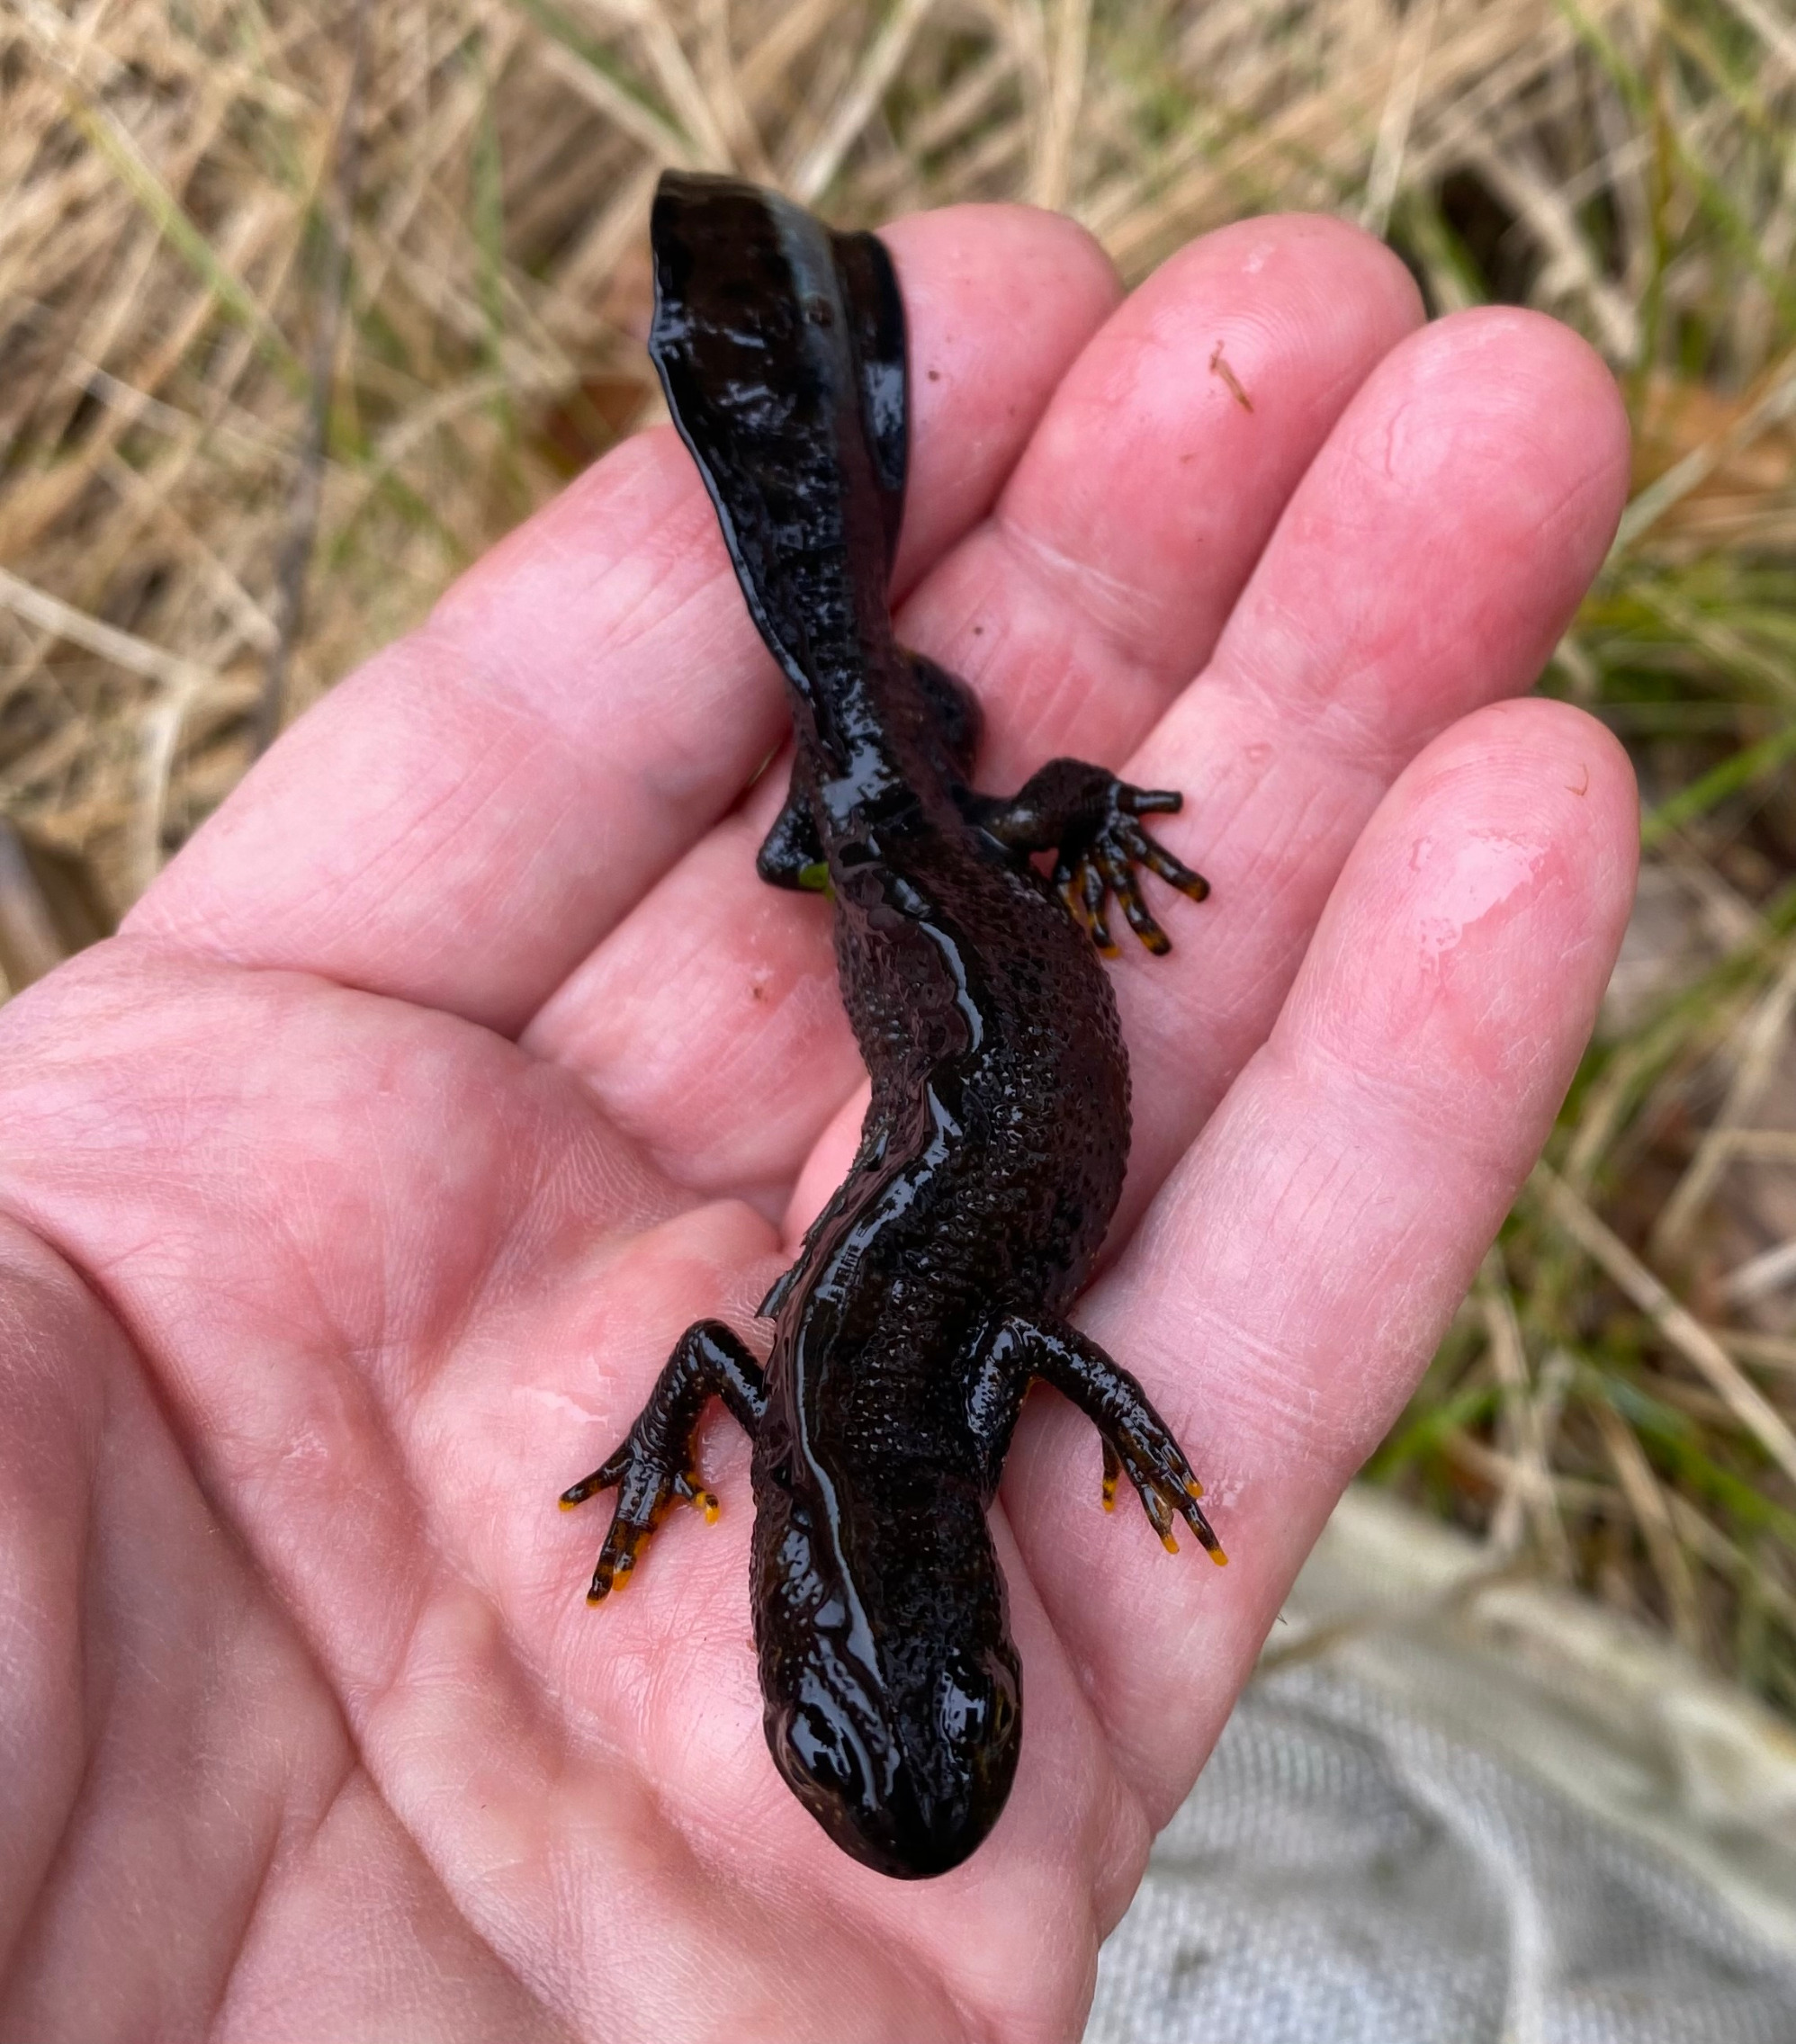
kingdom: Animalia
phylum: Chordata
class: Amphibia
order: Caudata
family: Salamandridae
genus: Triturus
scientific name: Triturus cristatus
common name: Stor vandsalamander
